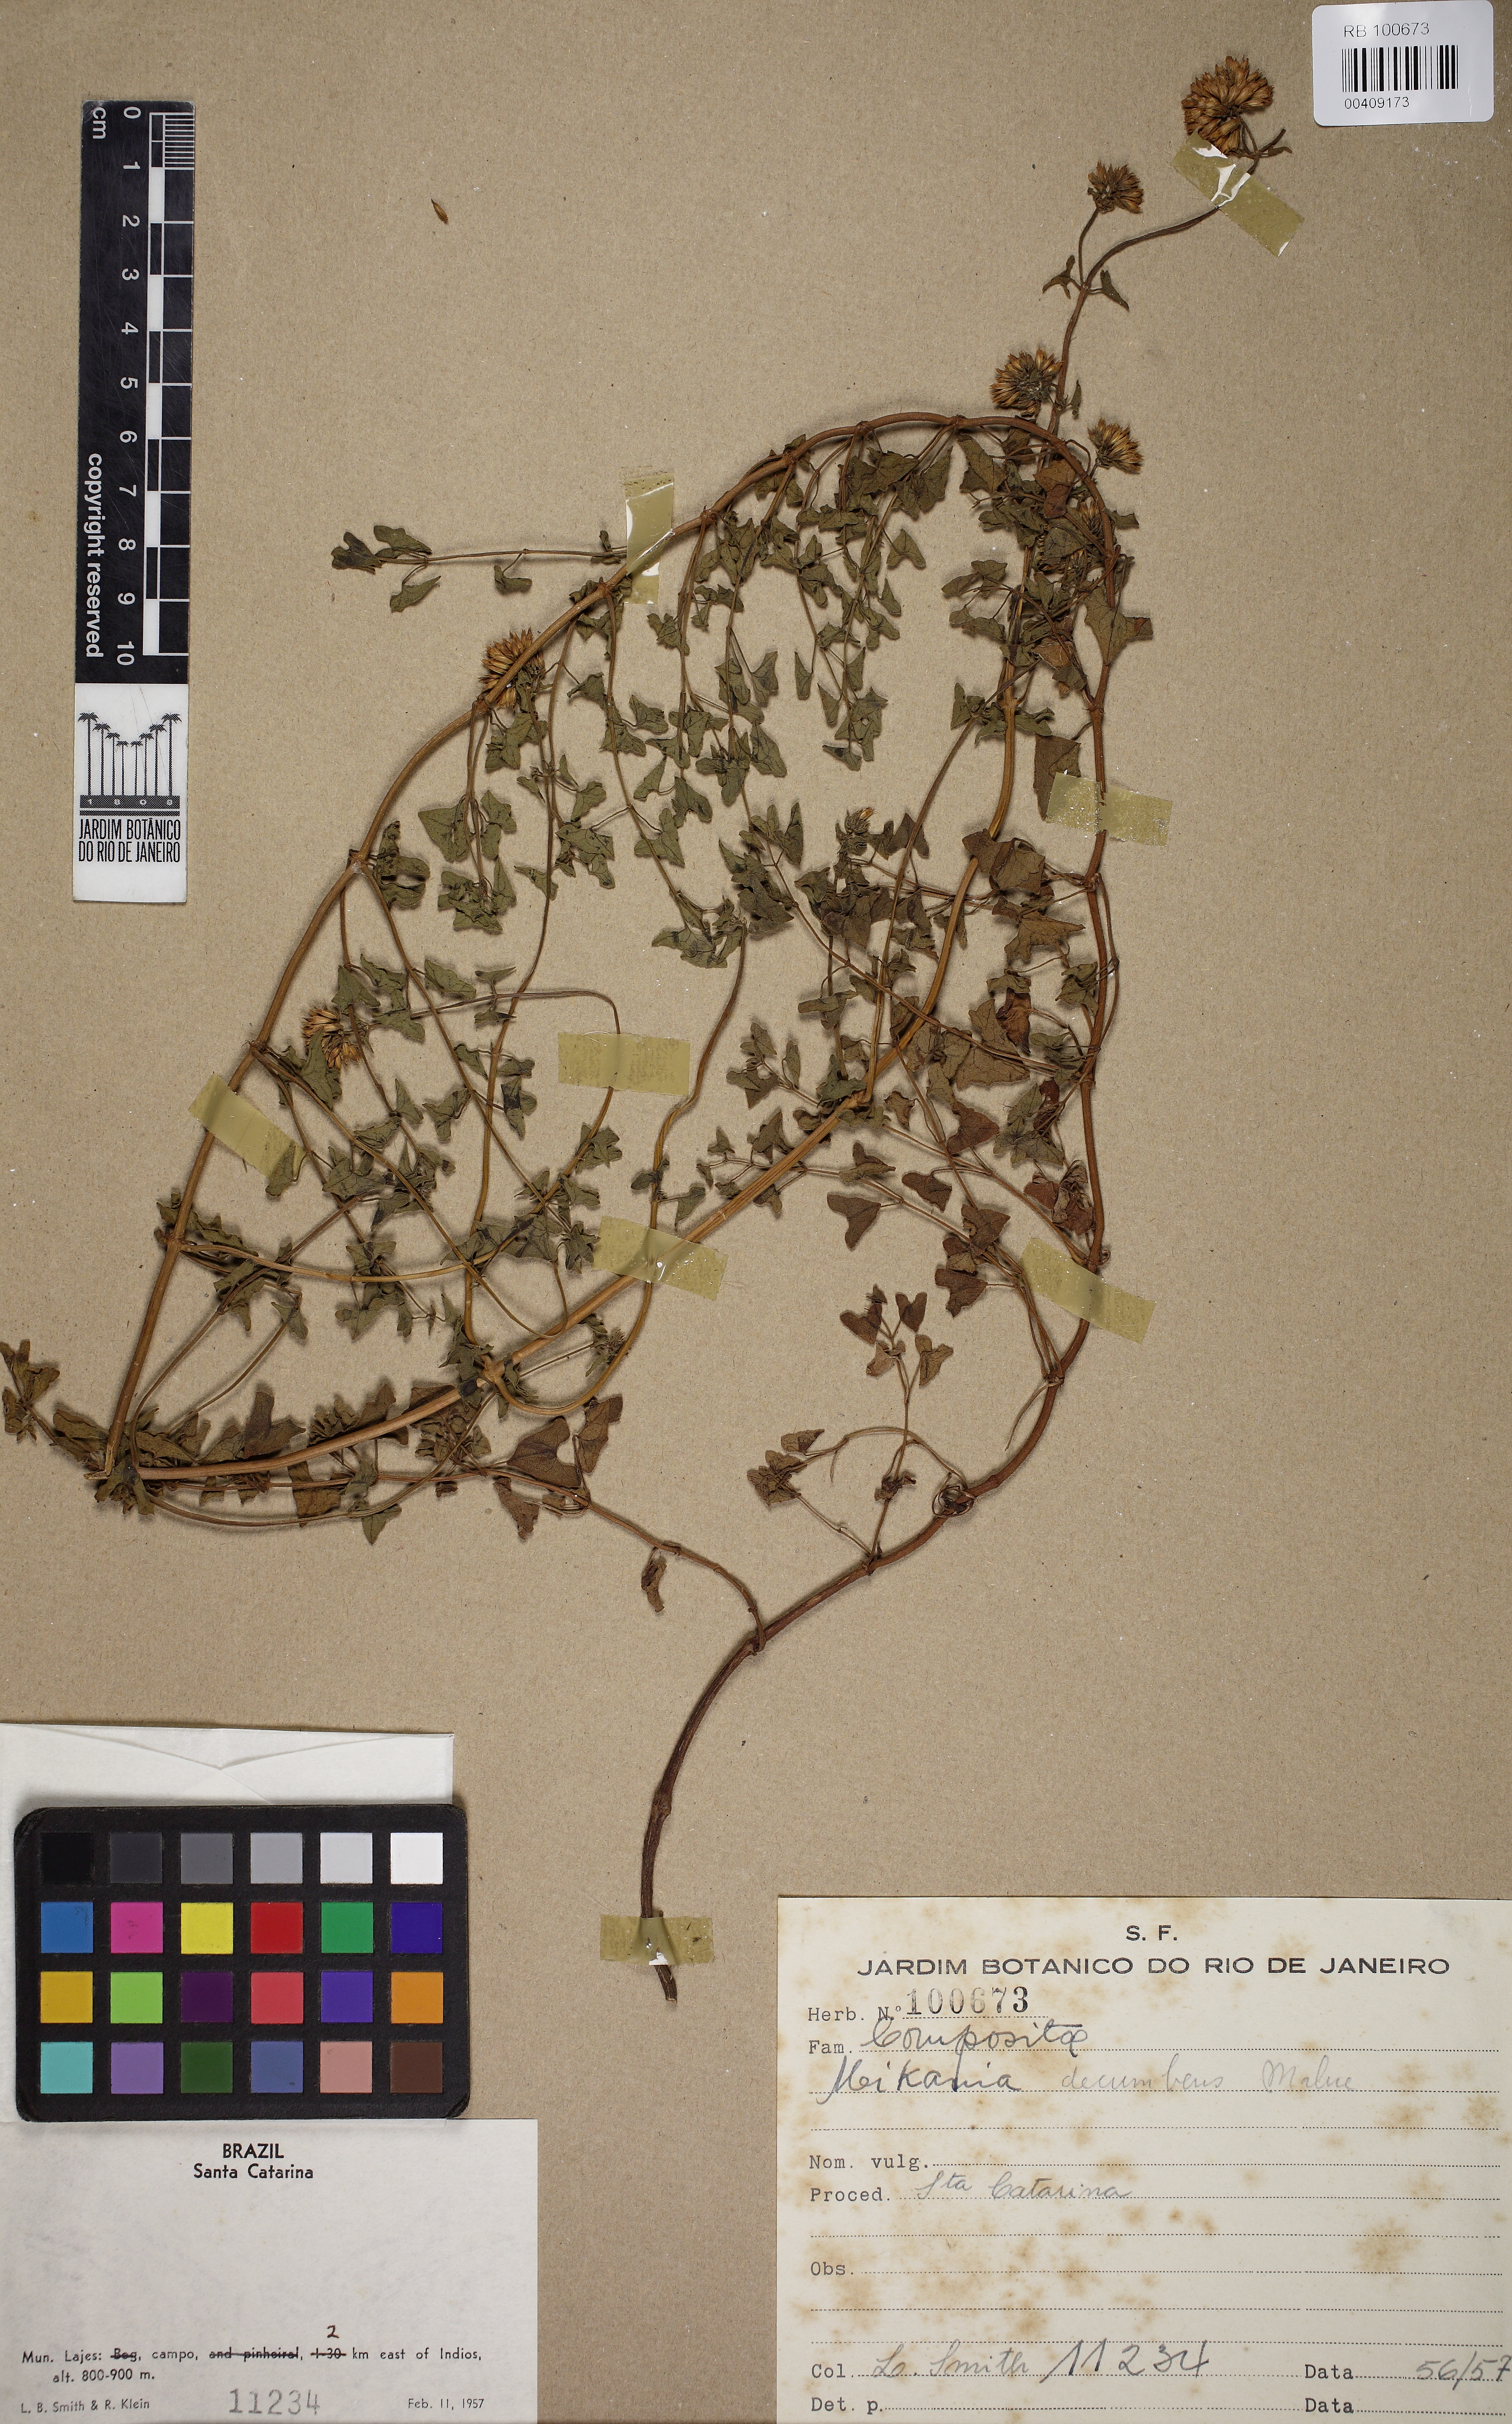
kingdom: Plantae
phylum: Tracheophyta
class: Magnoliopsida
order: Asterales
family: Asteraceae
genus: Mikania
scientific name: Mikania decumbens
